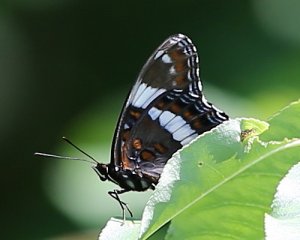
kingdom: Animalia
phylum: Arthropoda
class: Insecta
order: Lepidoptera
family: Nymphalidae
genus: Limenitis
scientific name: Limenitis arthemis
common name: Red-spotted Admiral
